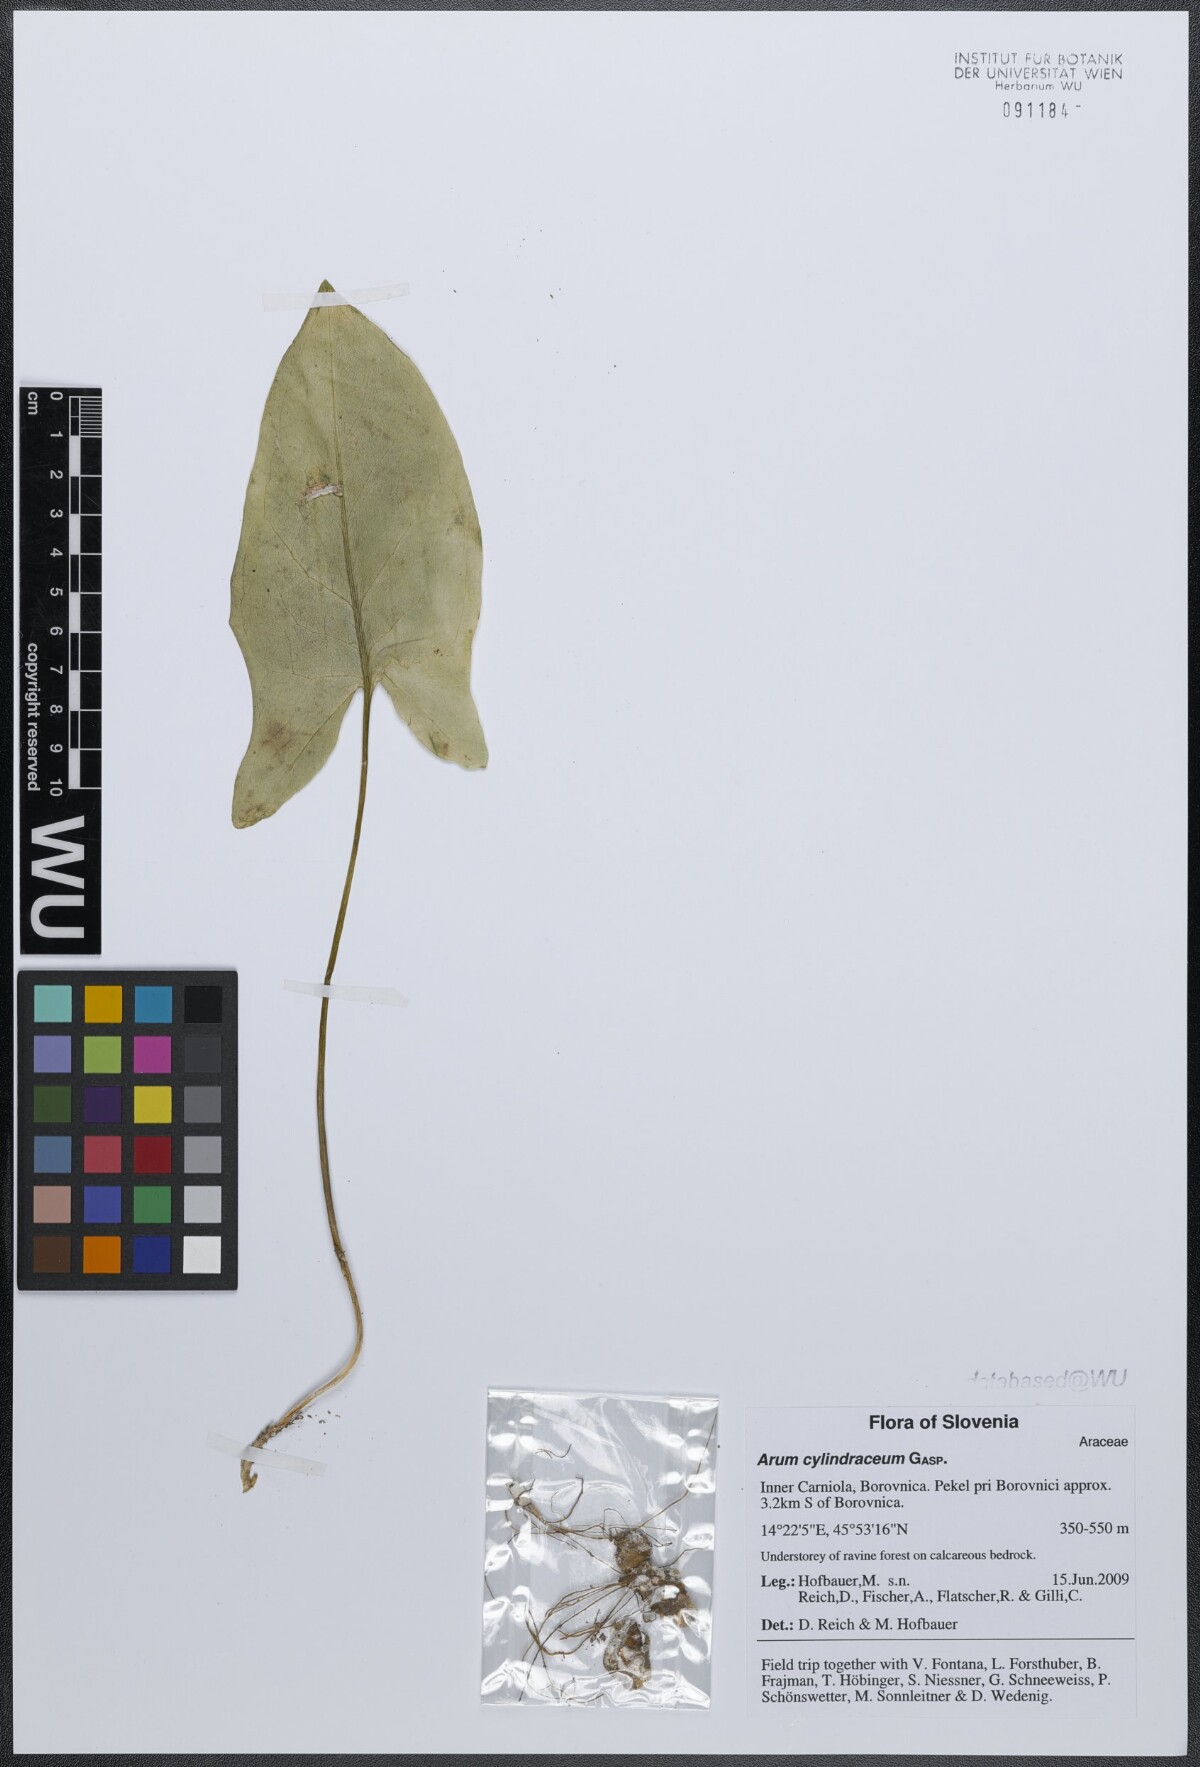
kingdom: Plantae
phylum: Tracheophyta
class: Liliopsida
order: Alismatales
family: Araceae
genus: Arum
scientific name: Arum cylindraceum
